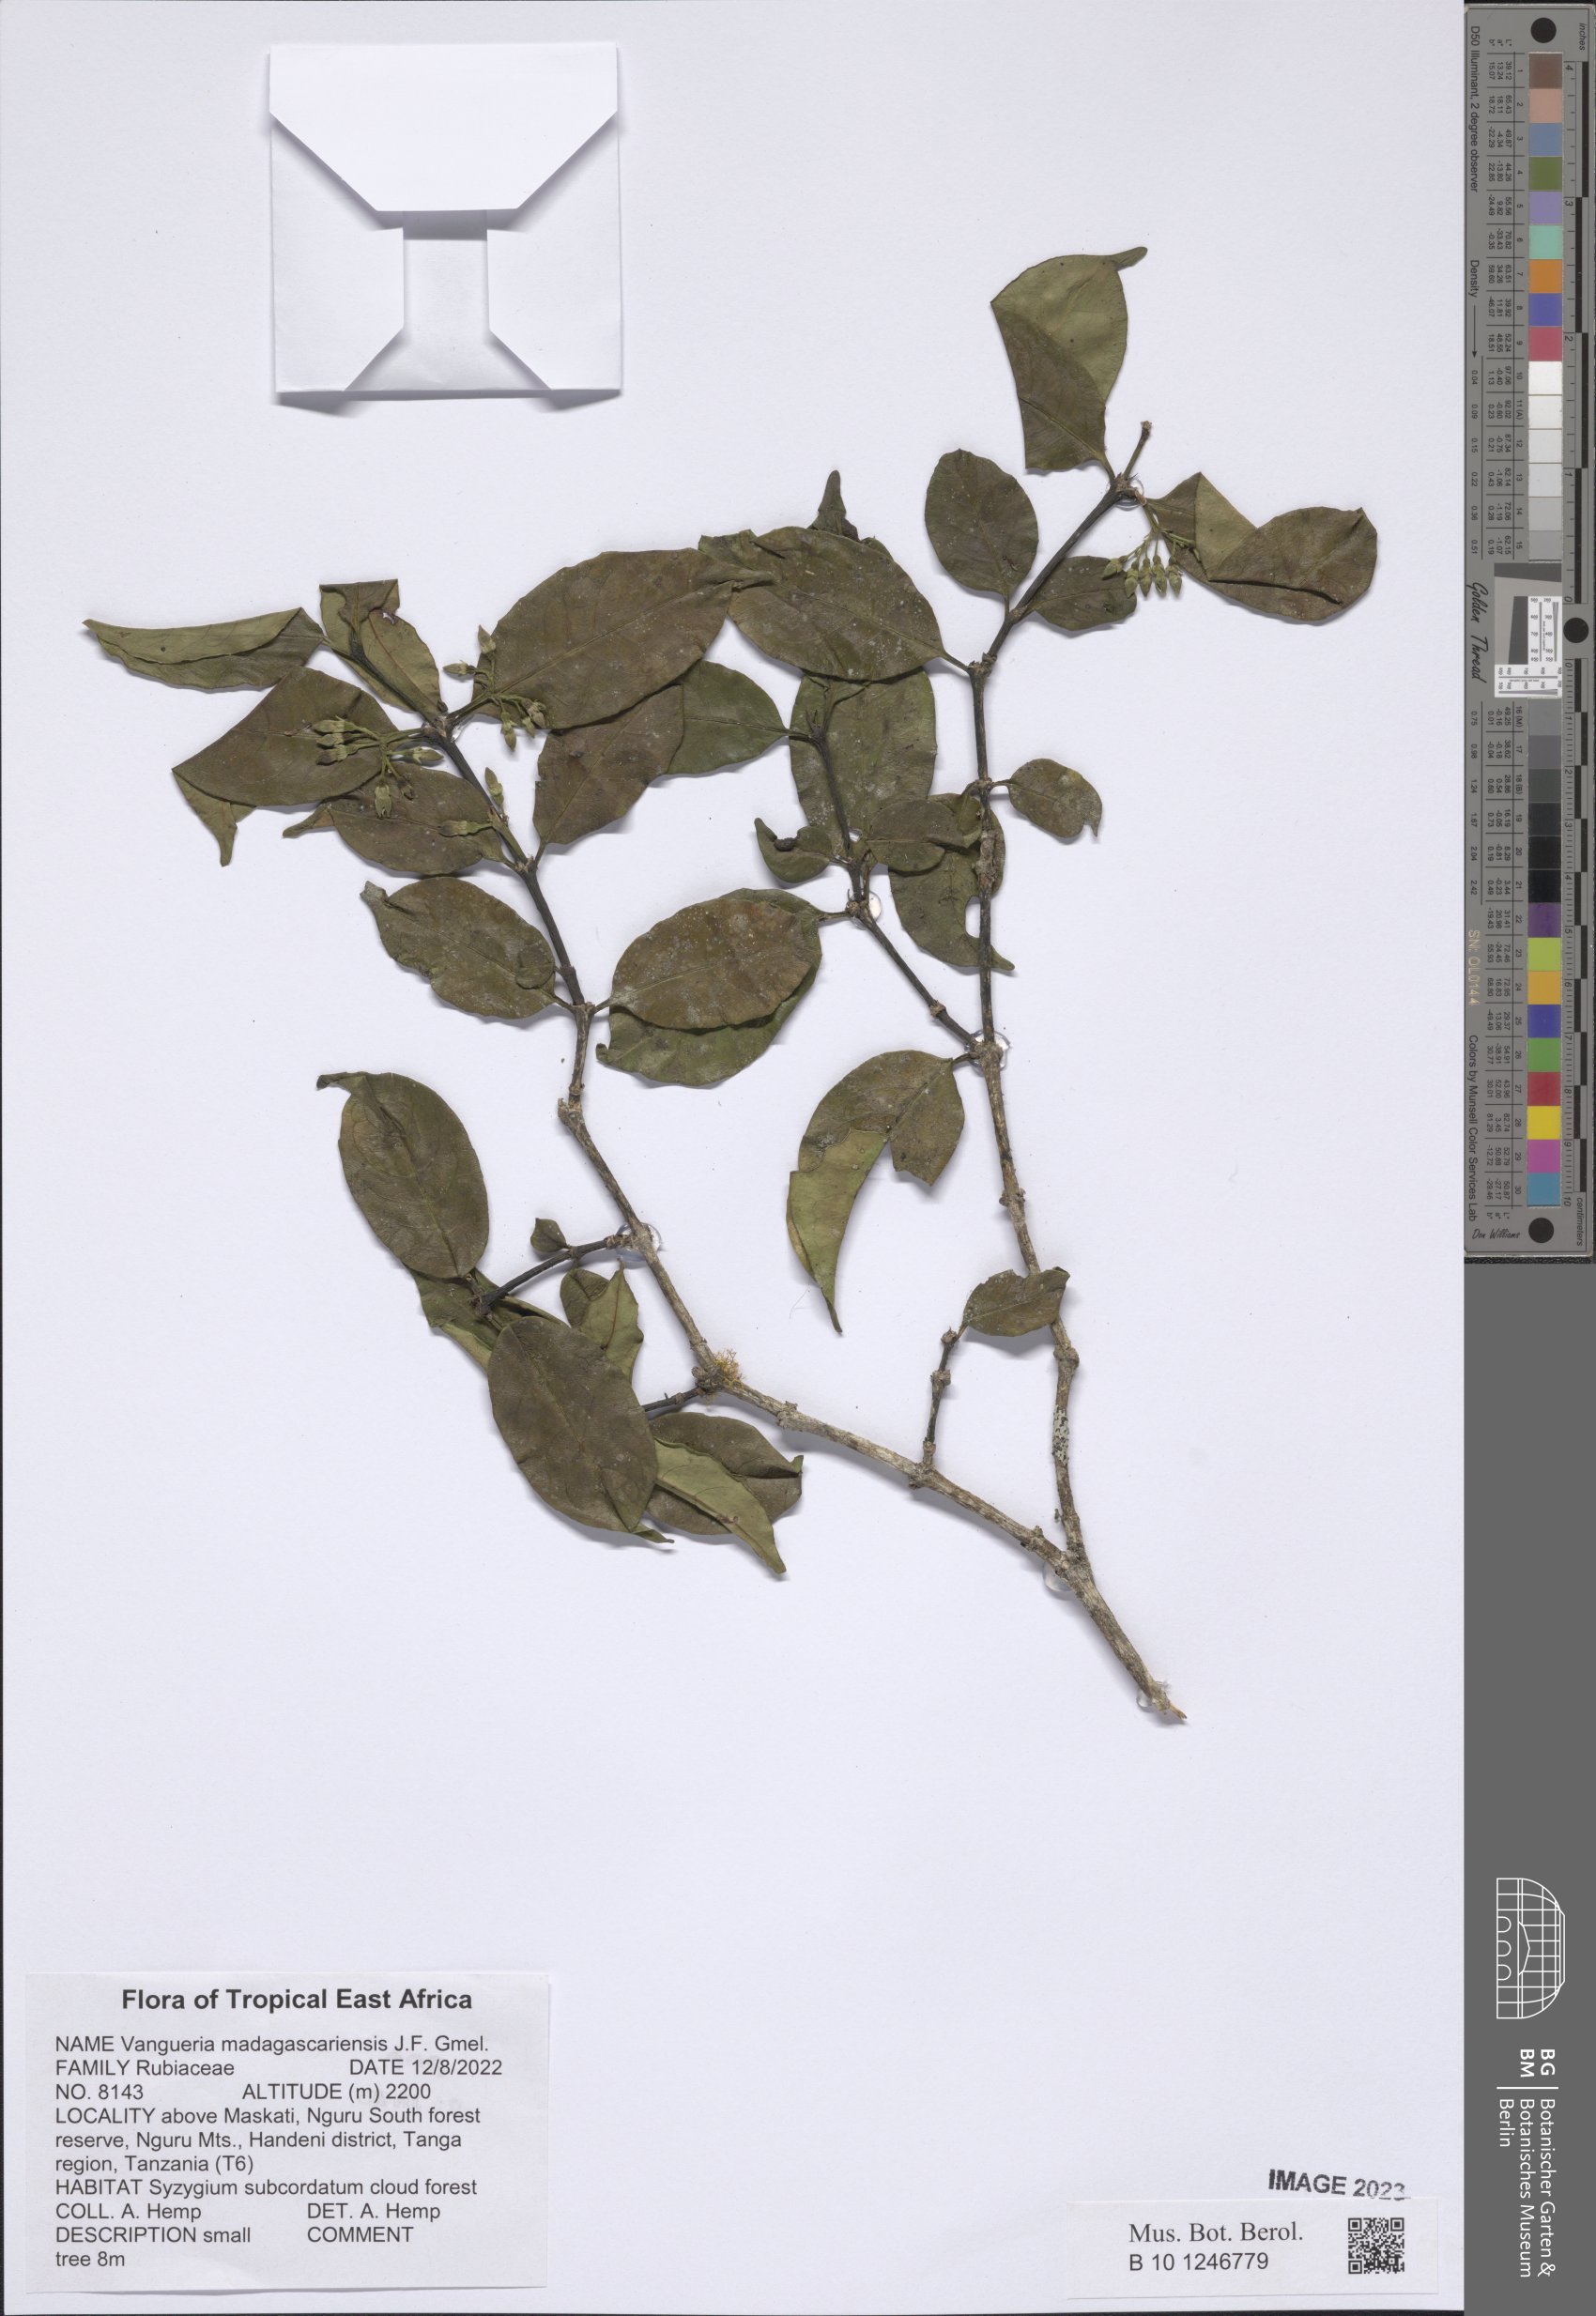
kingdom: Plantae
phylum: Tracheophyta
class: Magnoliopsida
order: Gentianales
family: Rubiaceae
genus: Vangueria
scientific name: Vangueria madagascariensis
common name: Smooth wild-medlar
